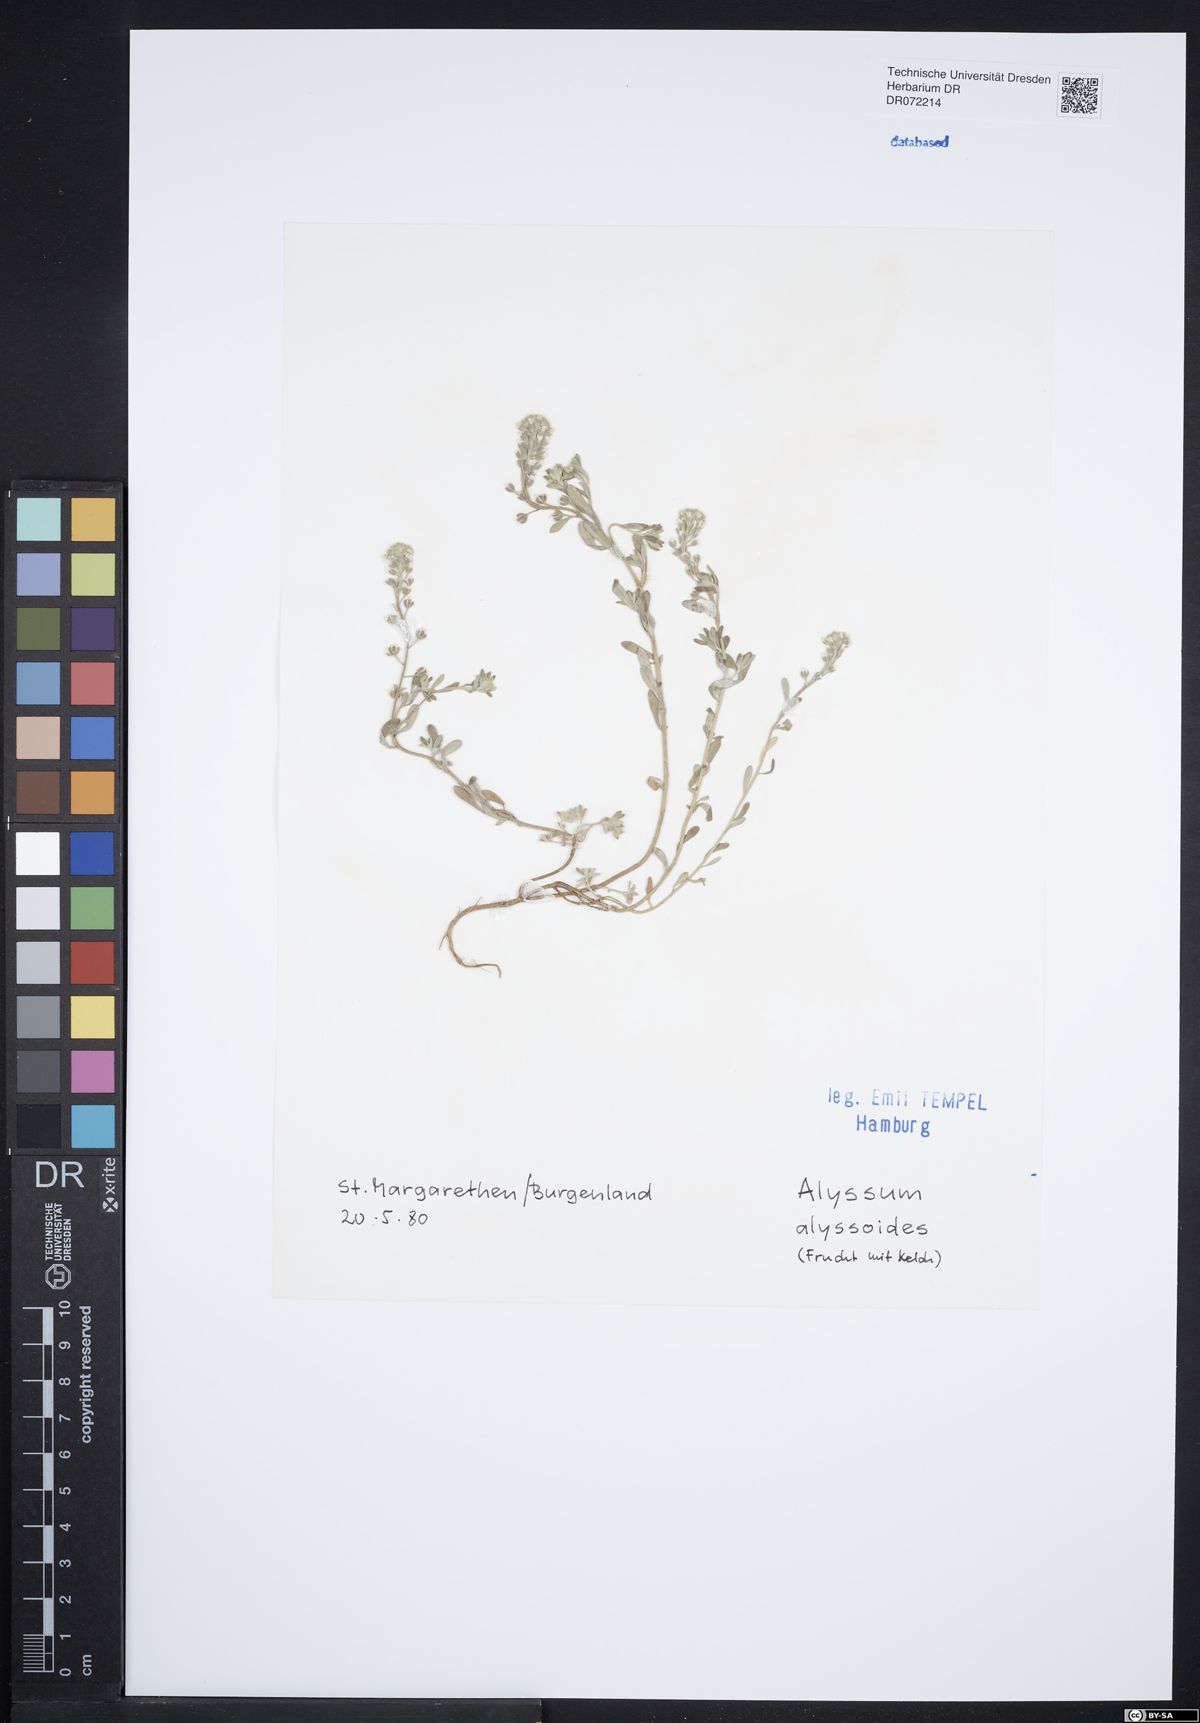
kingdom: Plantae
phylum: Tracheophyta
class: Magnoliopsida
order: Brassicales
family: Brassicaceae
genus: Alyssum
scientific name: Alyssum alyssoides
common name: Small alison
